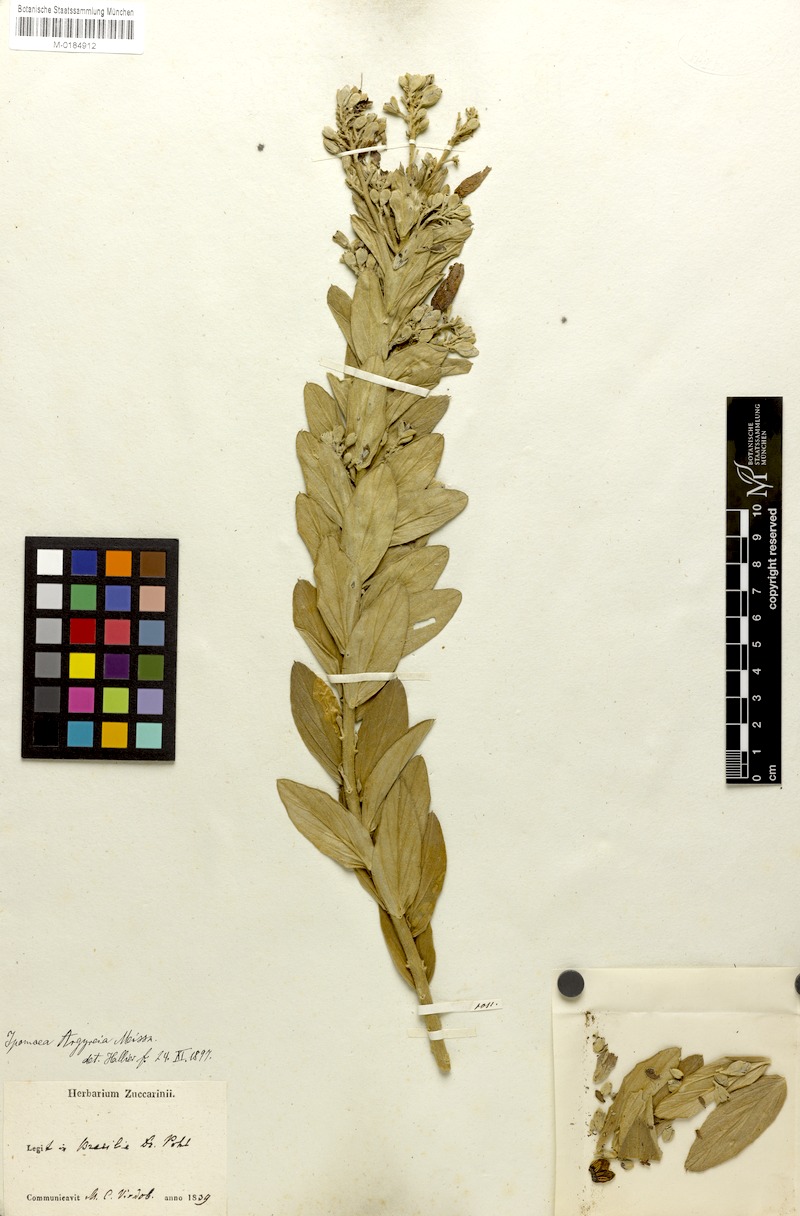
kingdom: Plantae
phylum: Tracheophyta
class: Magnoliopsida
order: Solanales
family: Convolvulaceae
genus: Ipomoea
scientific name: Ipomoea argyreia
